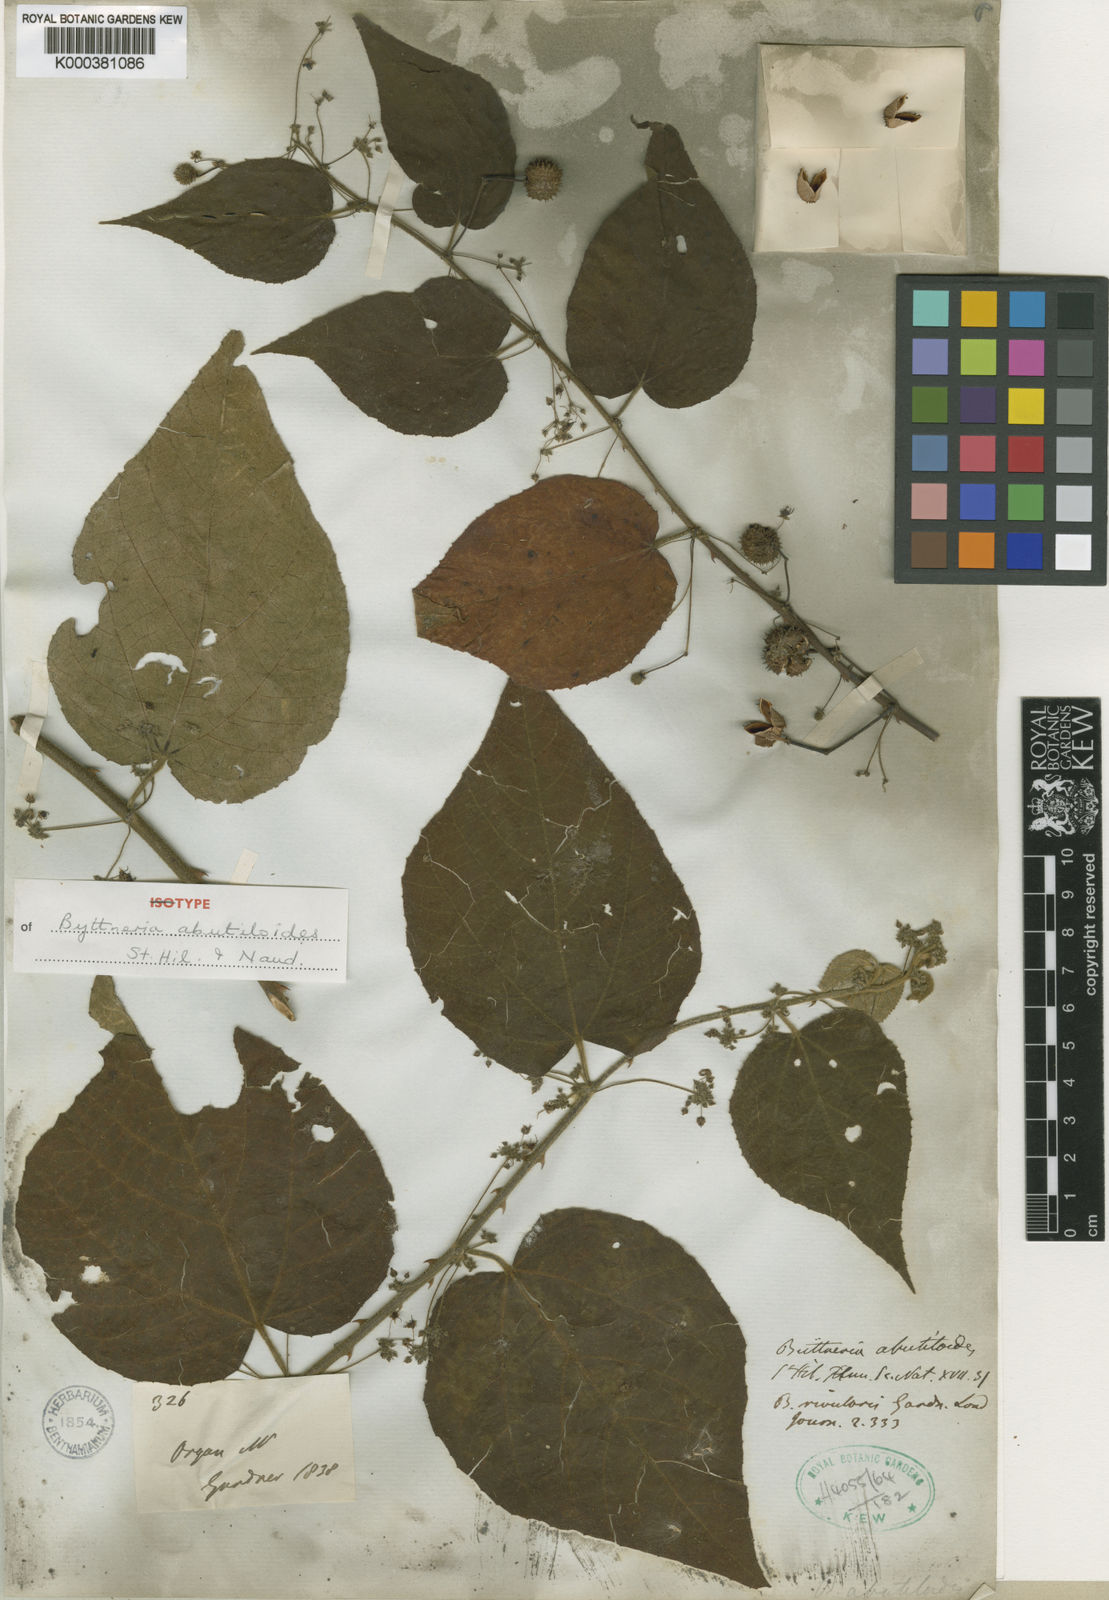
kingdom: Plantae
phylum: Tracheophyta
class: Magnoliopsida
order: Malvales
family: Malvaceae
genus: Byttneria
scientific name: Byttneria abutiloides
